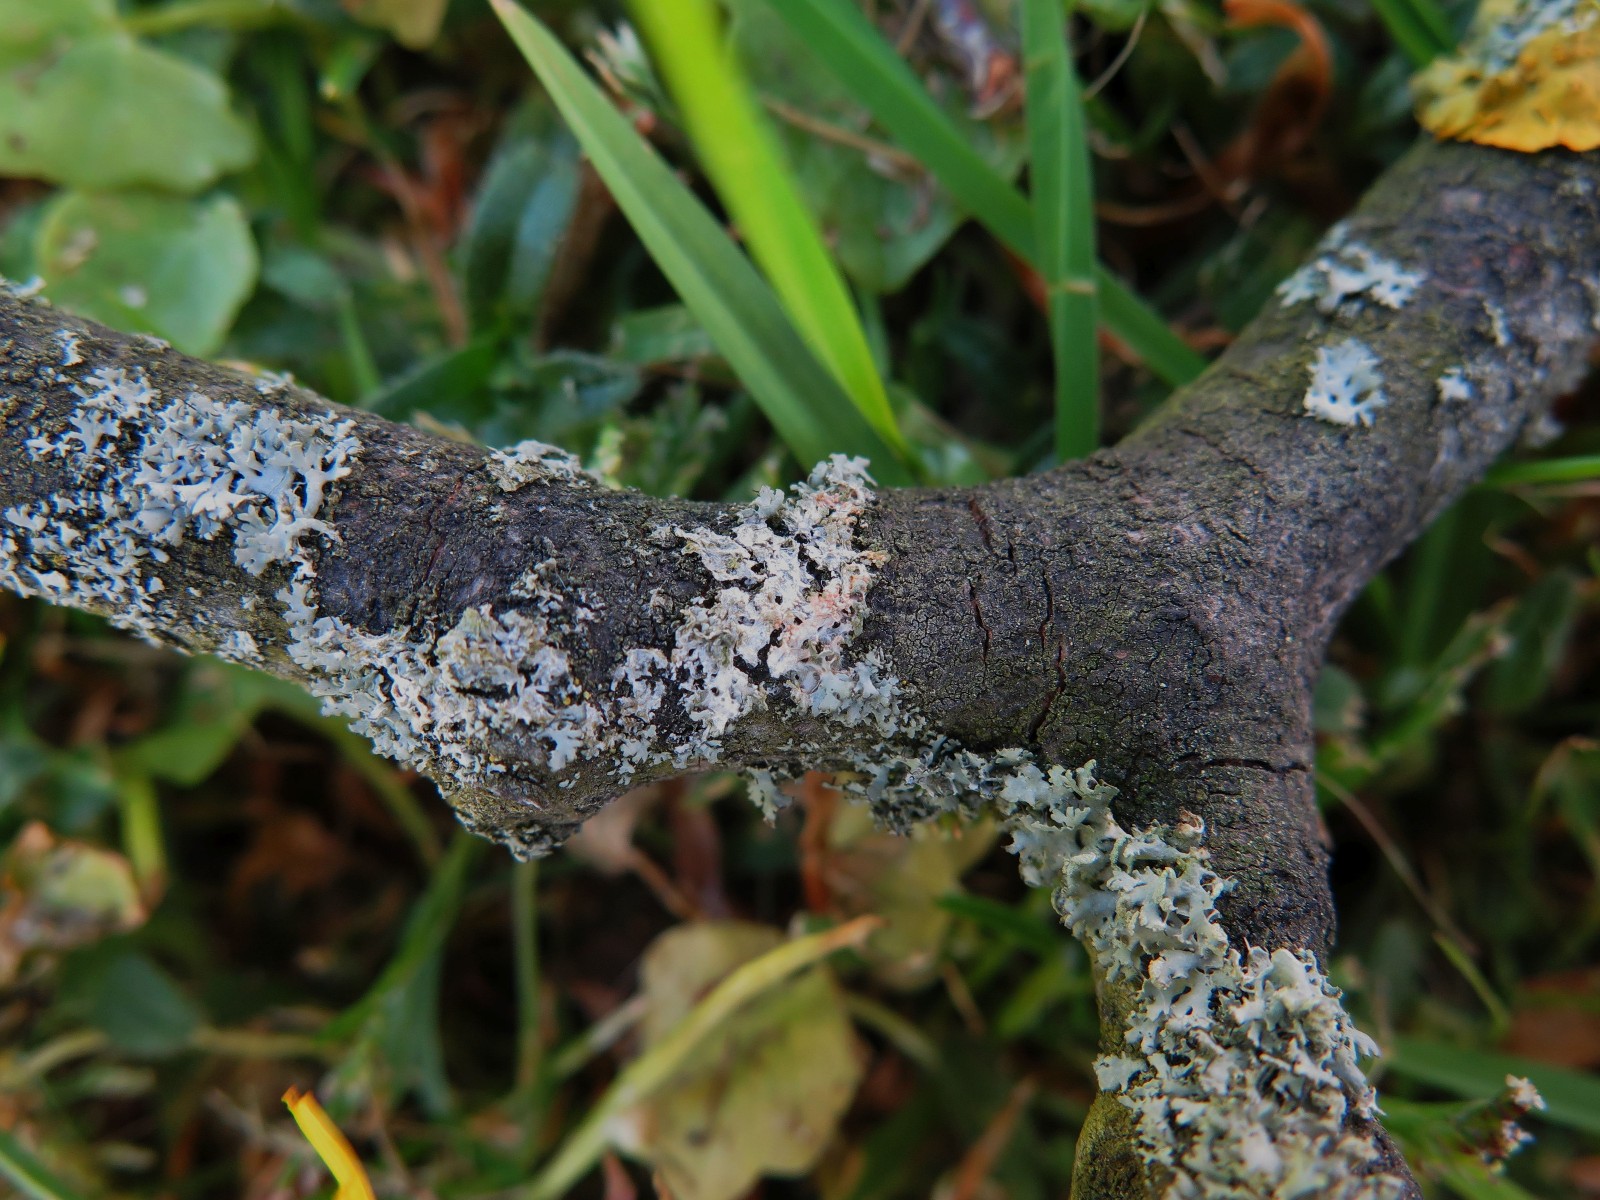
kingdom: Fungi
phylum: Basidiomycota
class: Agaricomycetes
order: Corticiales
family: Corticiaceae
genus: Erythricium
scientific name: Erythricium aurantiacum
